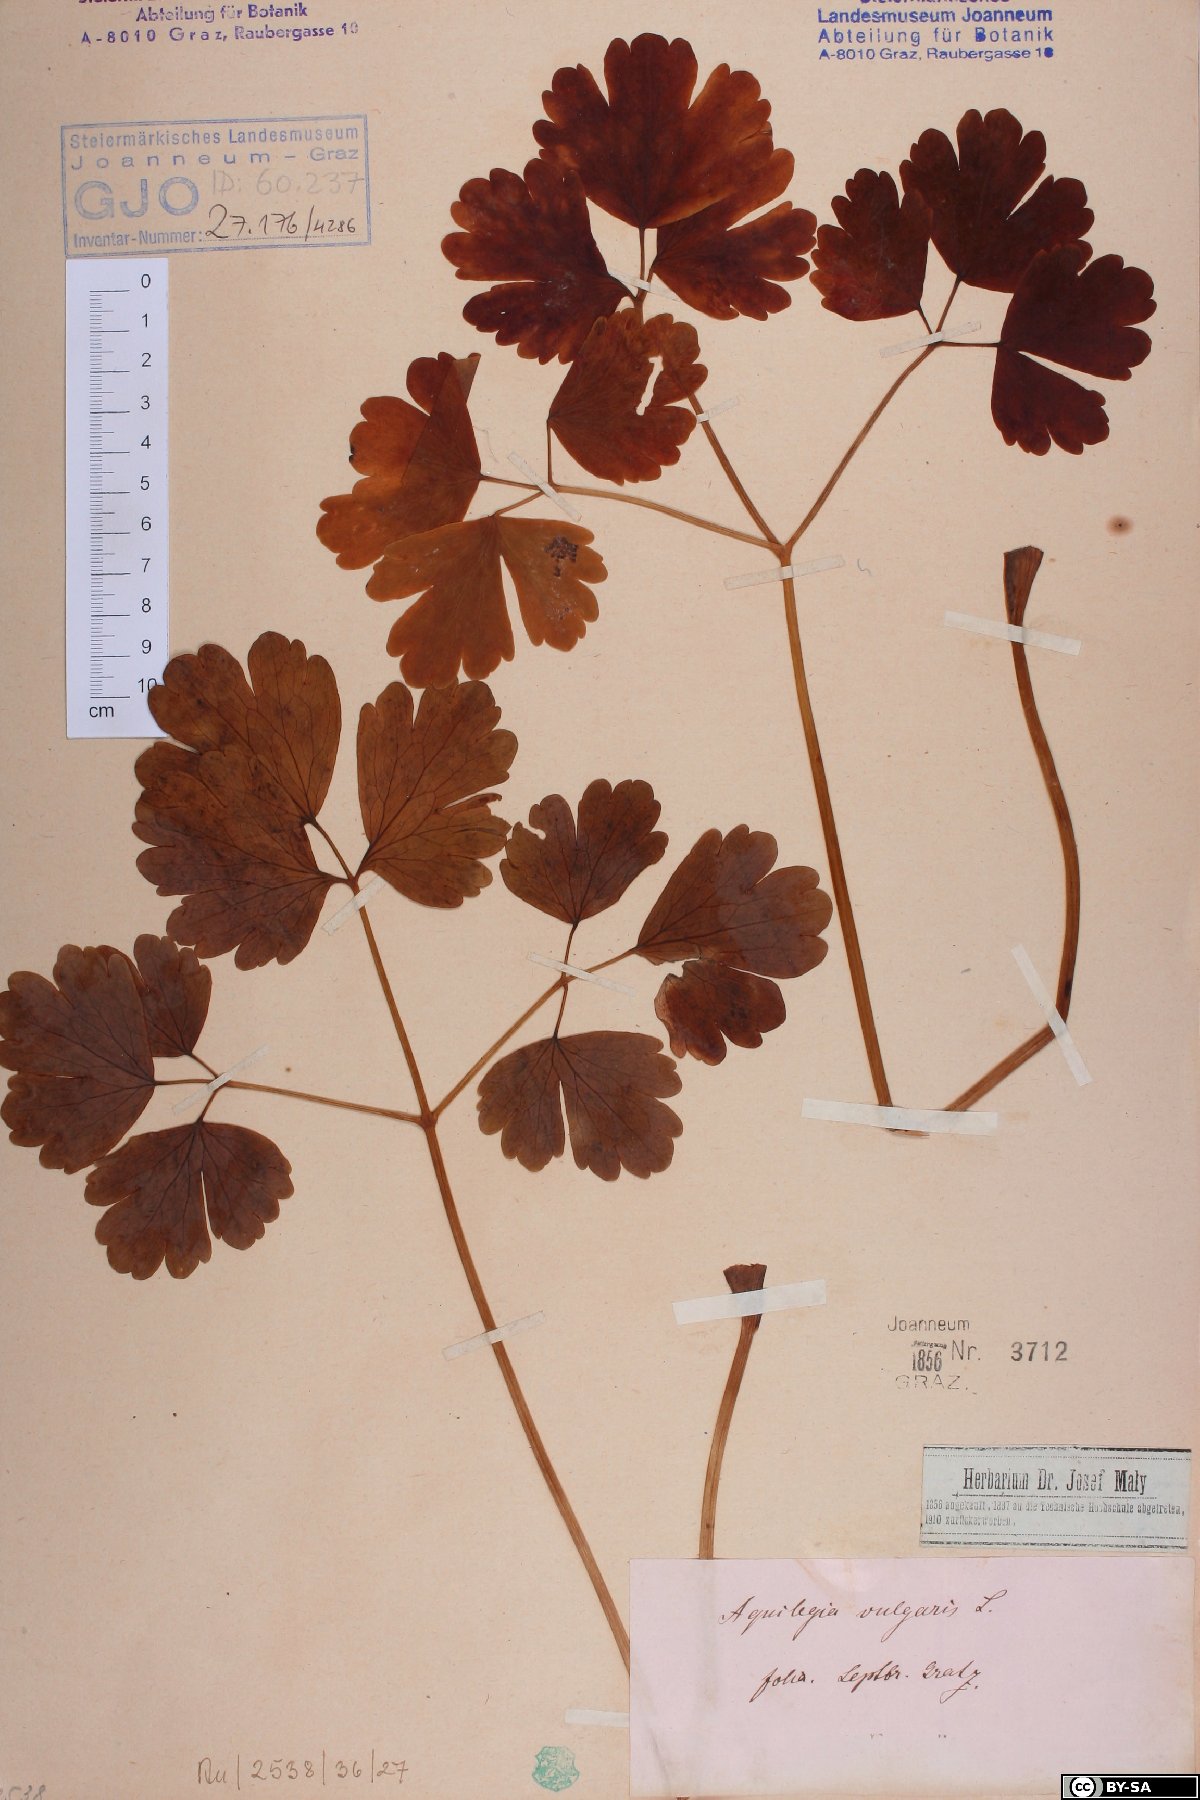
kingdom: Plantae
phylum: Tracheophyta
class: Magnoliopsida
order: Ranunculales
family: Ranunculaceae
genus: Aquilegia
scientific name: Aquilegia vulgaris
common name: Columbine
